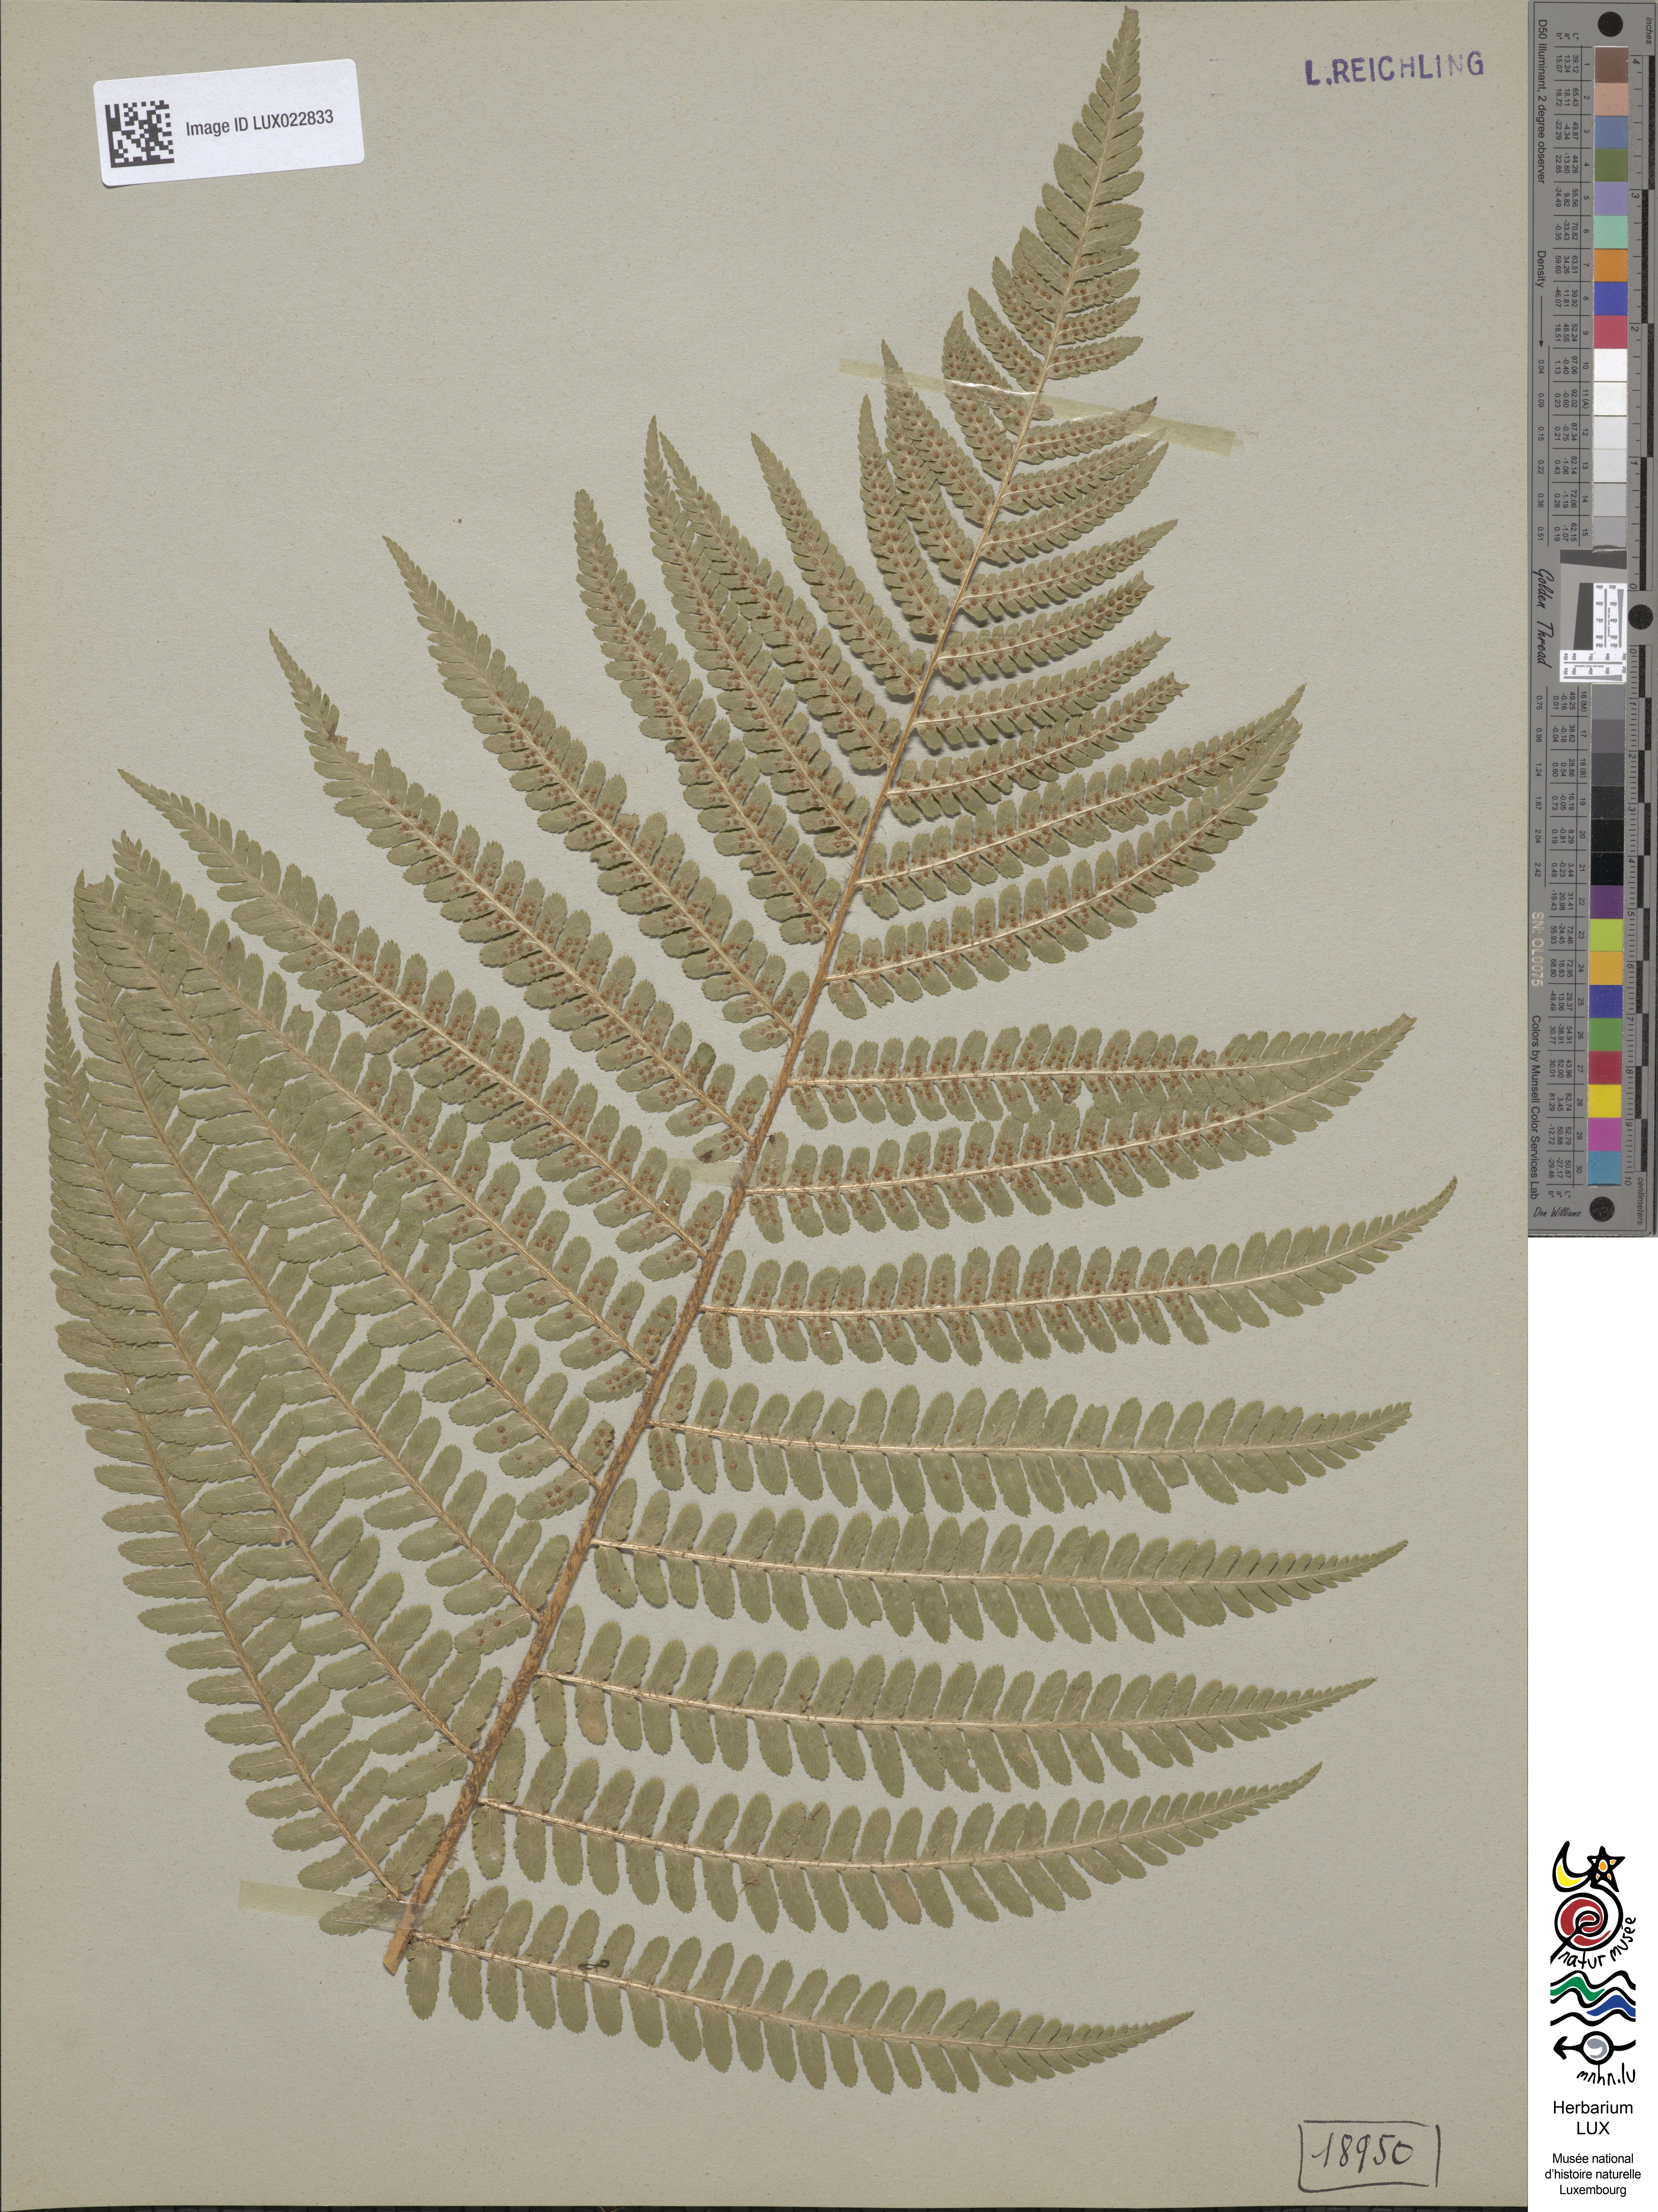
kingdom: Plantae
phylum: Tracheophyta
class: Polypodiopsida
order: Polypodiales
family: Dryopteridaceae
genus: Dryopteris
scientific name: Dryopteris filix-mas
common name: Male fern
